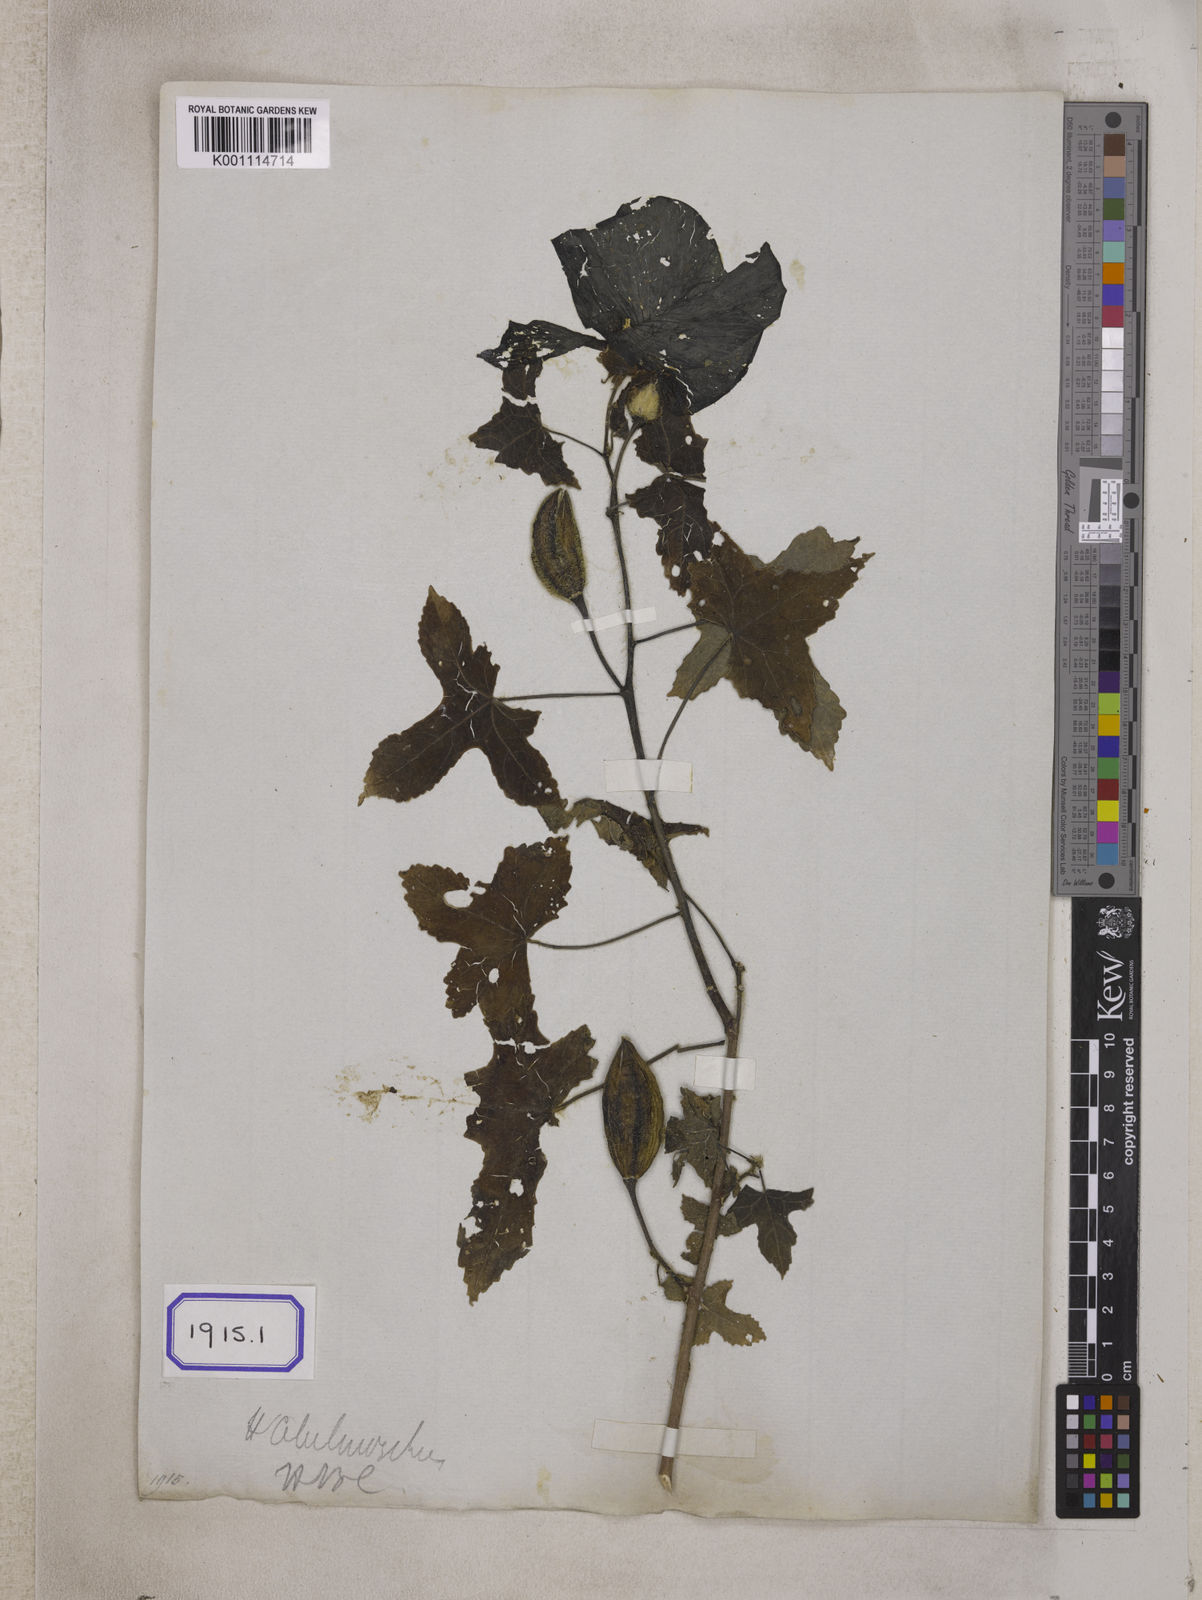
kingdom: Plantae
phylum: Tracheophyta
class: Magnoliopsida
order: Malvales
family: Malvaceae
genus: Bamia
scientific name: Bamia
